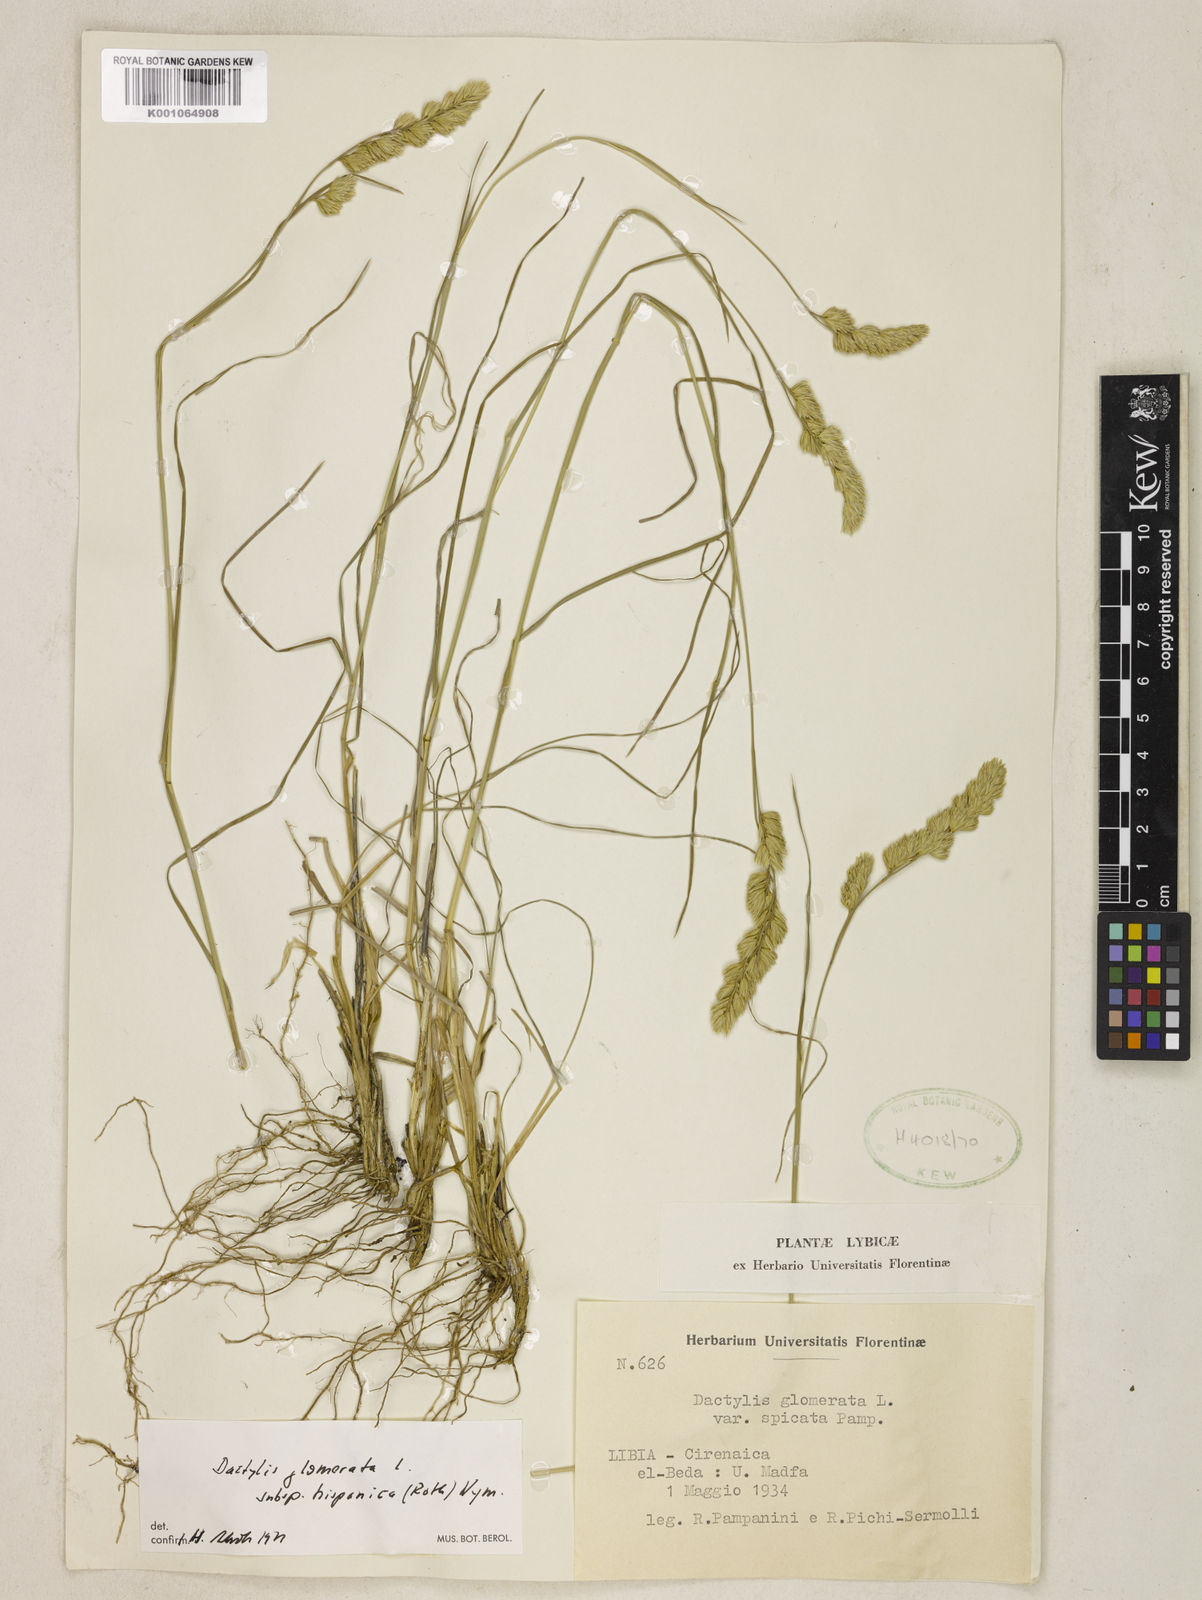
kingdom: Plantae
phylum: Tracheophyta
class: Liliopsida
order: Poales
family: Poaceae
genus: Dactylis
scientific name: Dactylis glomerata
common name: Orchardgrass
